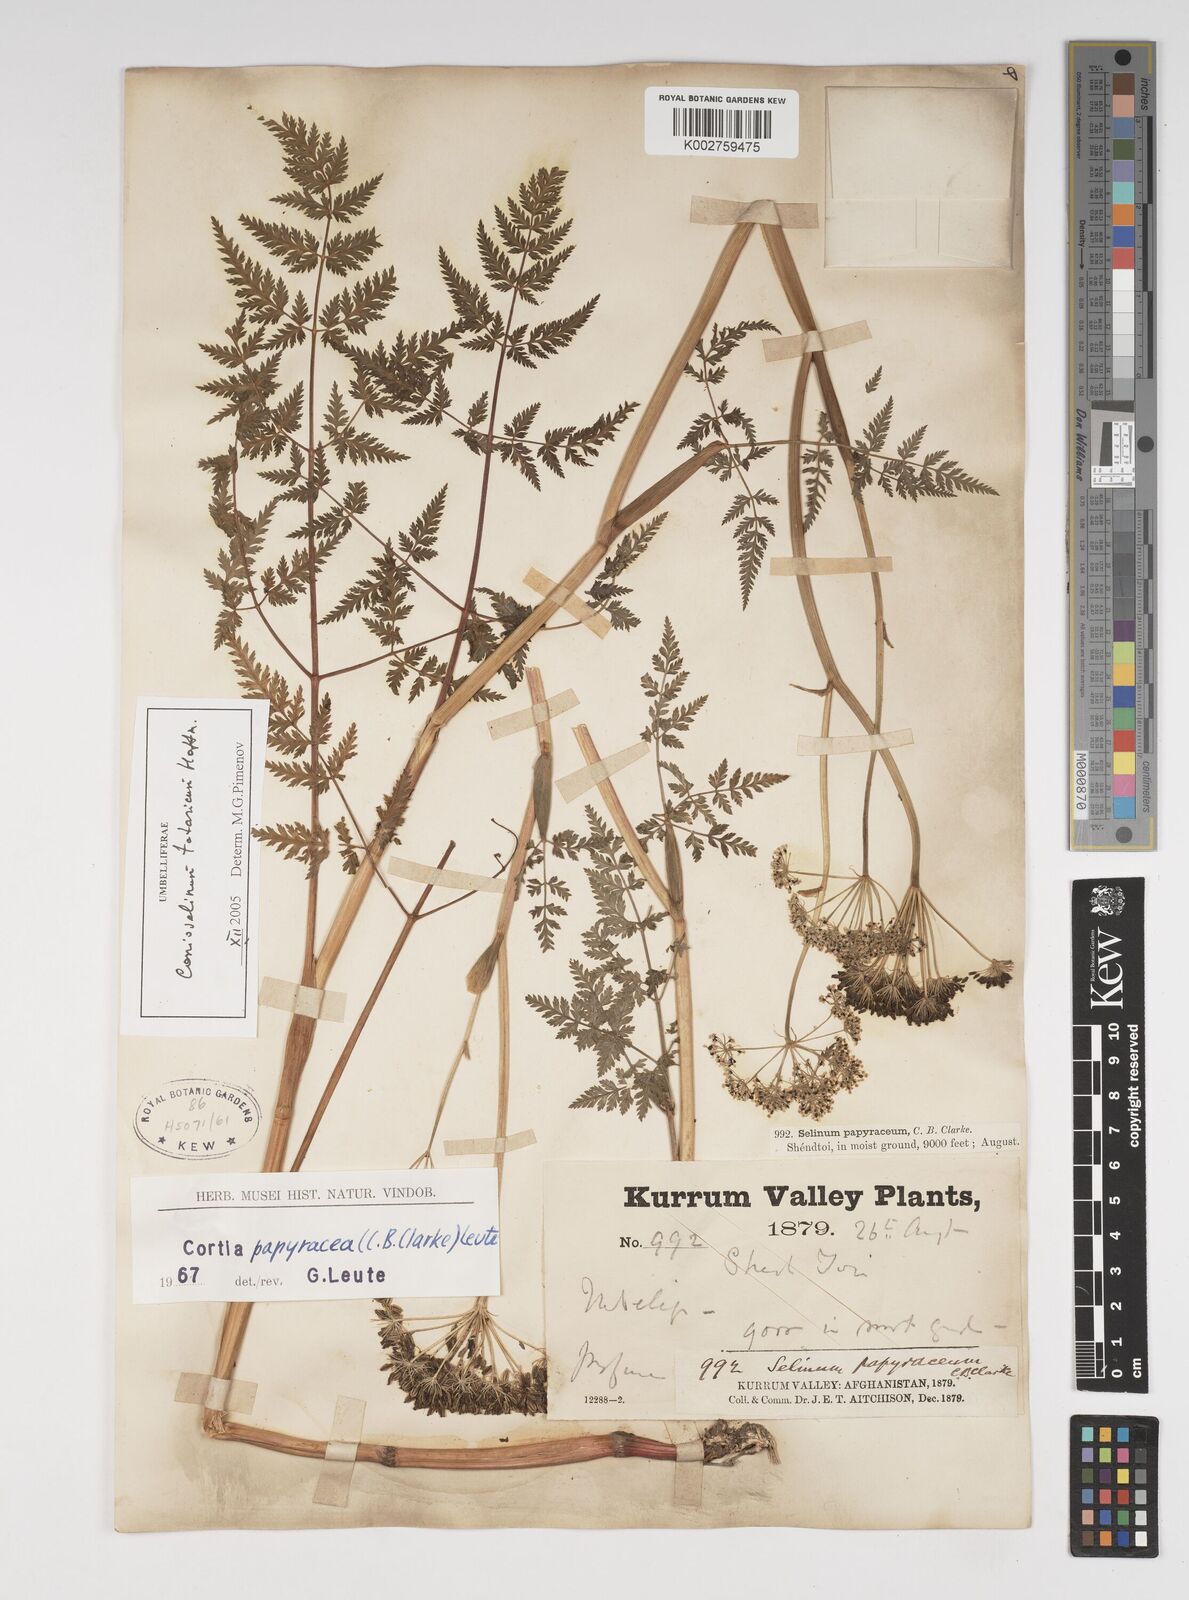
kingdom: Plantae
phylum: Tracheophyta
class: Magnoliopsida
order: Apiales
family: Apiaceae
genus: Conioselinum
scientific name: Conioselinum tataricum
